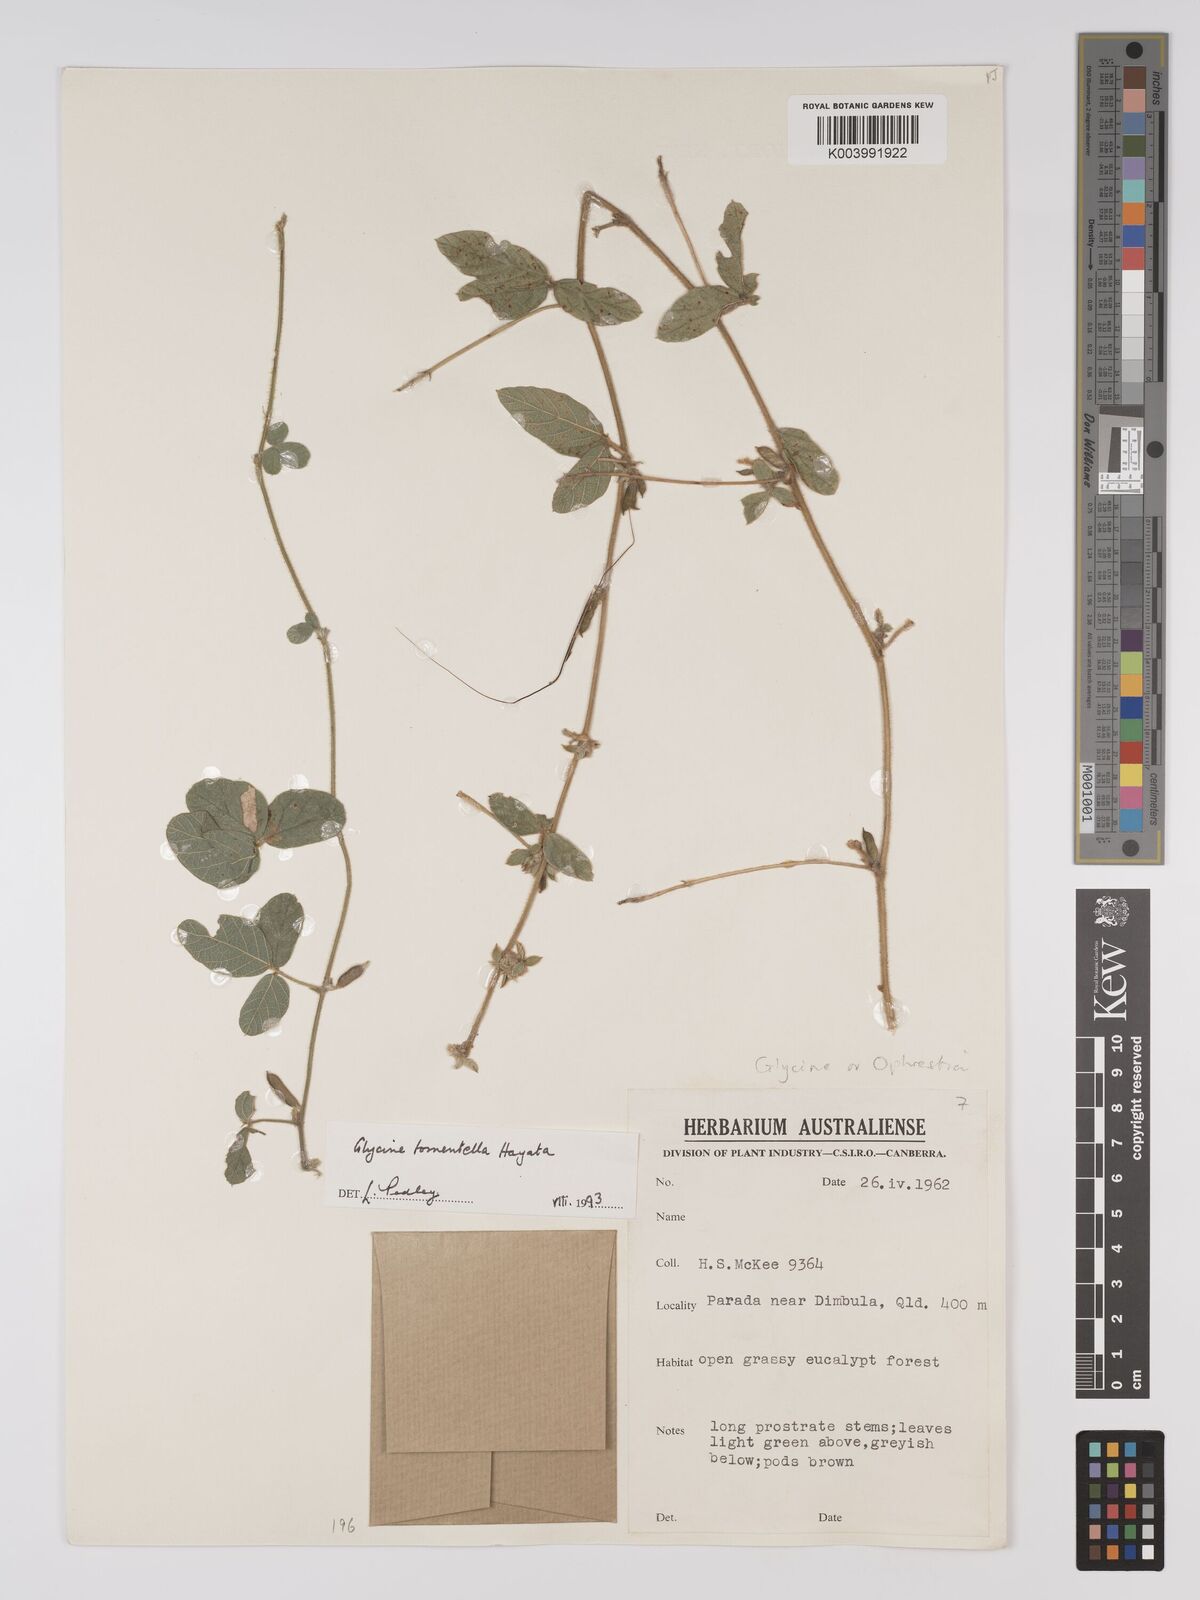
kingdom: Plantae
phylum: Tracheophyta
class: Magnoliopsida
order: Fabales
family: Fabaceae
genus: Glycine
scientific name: Glycine tomentella
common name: Hairy glycine
